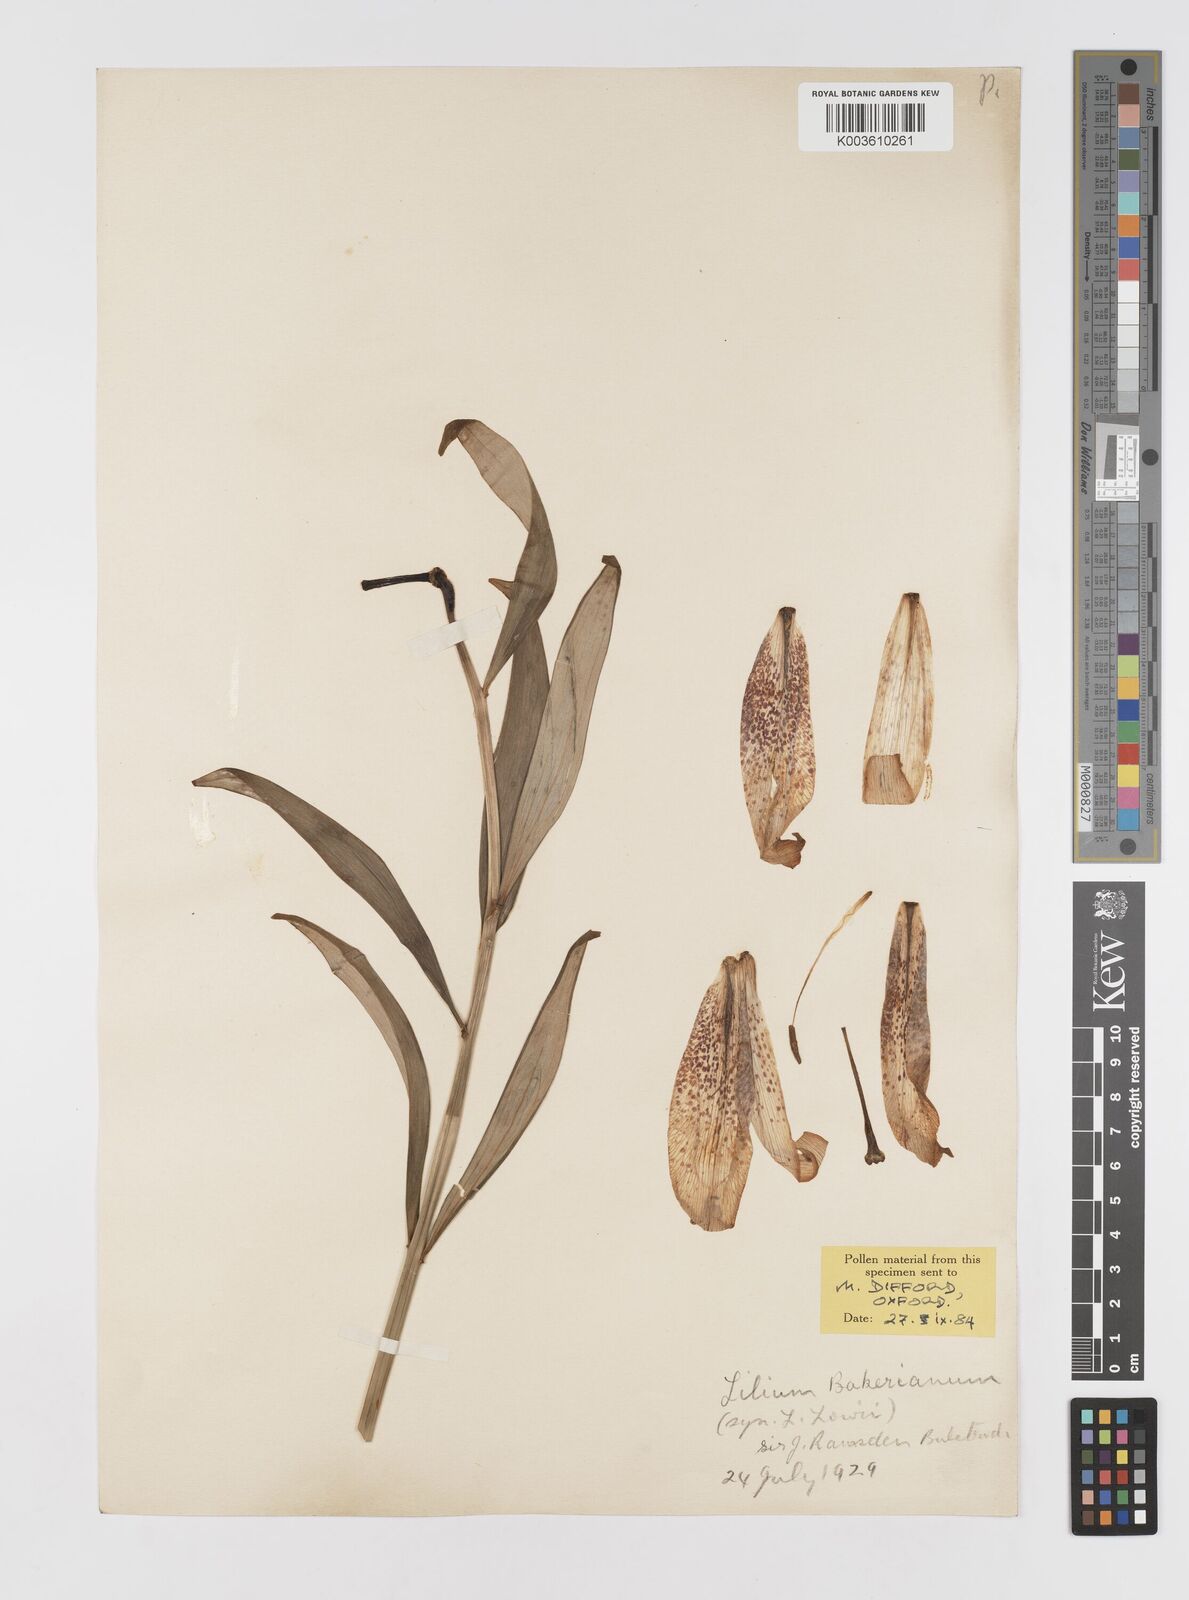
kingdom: Plantae
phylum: Tracheophyta
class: Liliopsida
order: Liliales
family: Liliaceae
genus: Lilium
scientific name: Lilium bakerianum
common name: Baker's lily
